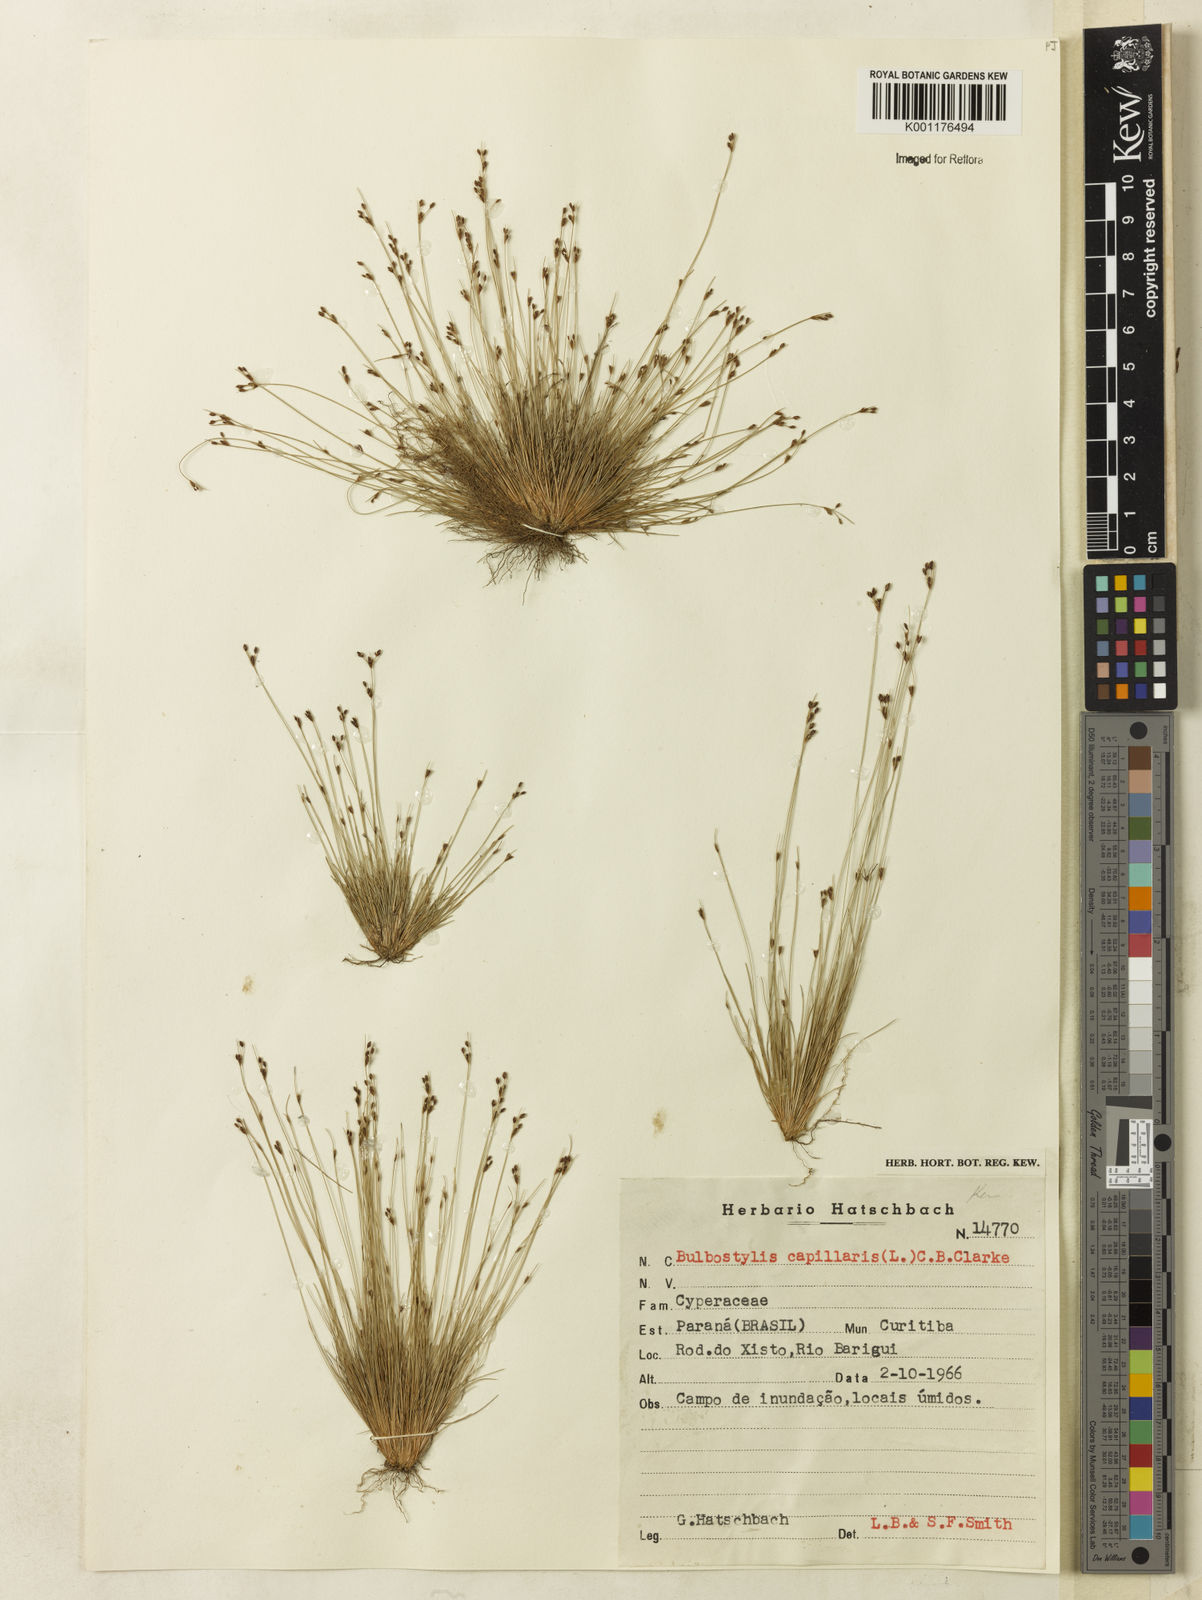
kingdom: Plantae
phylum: Tracheophyta
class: Liliopsida
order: Poales
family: Cyperaceae
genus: Bulbostylis
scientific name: Bulbostylis capillaris
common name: Densetuft hairsedge
